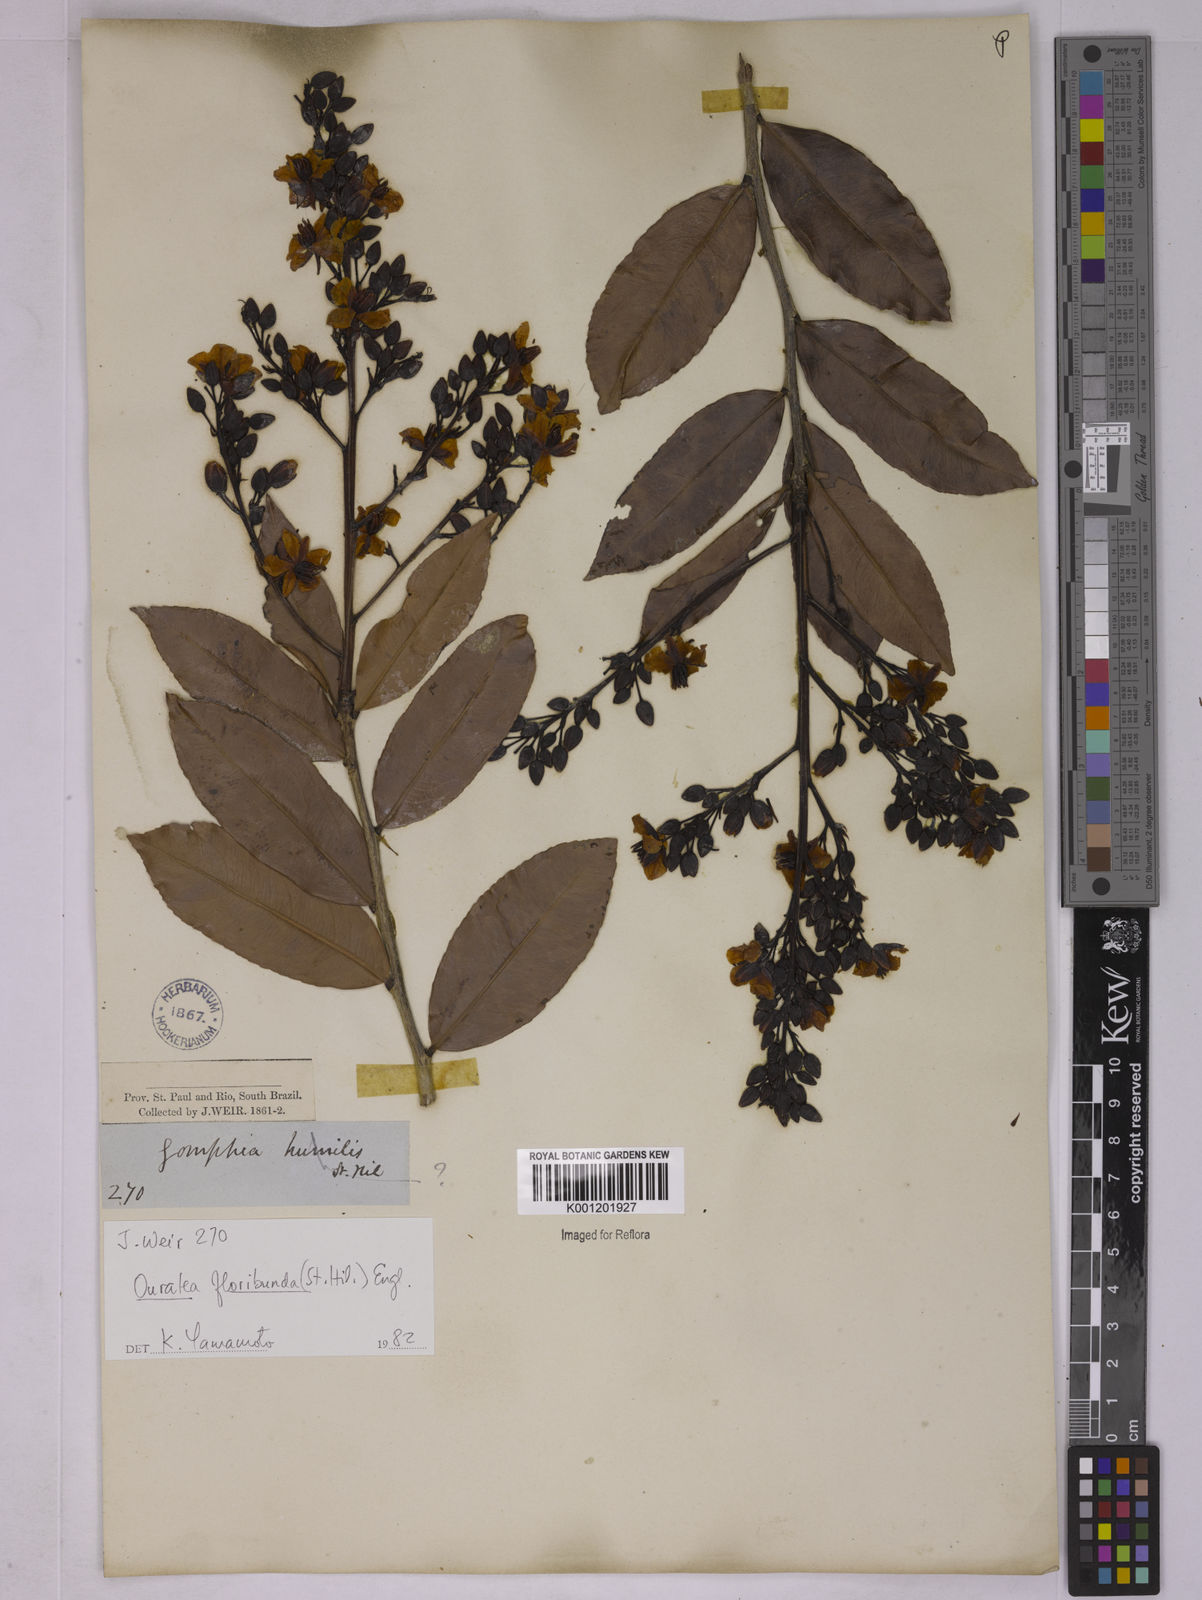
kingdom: Plantae
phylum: Tracheophyta
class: Magnoliopsida
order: Malpighiales
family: Ochnaceae
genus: Ouratea
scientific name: Ouratea floribunda
